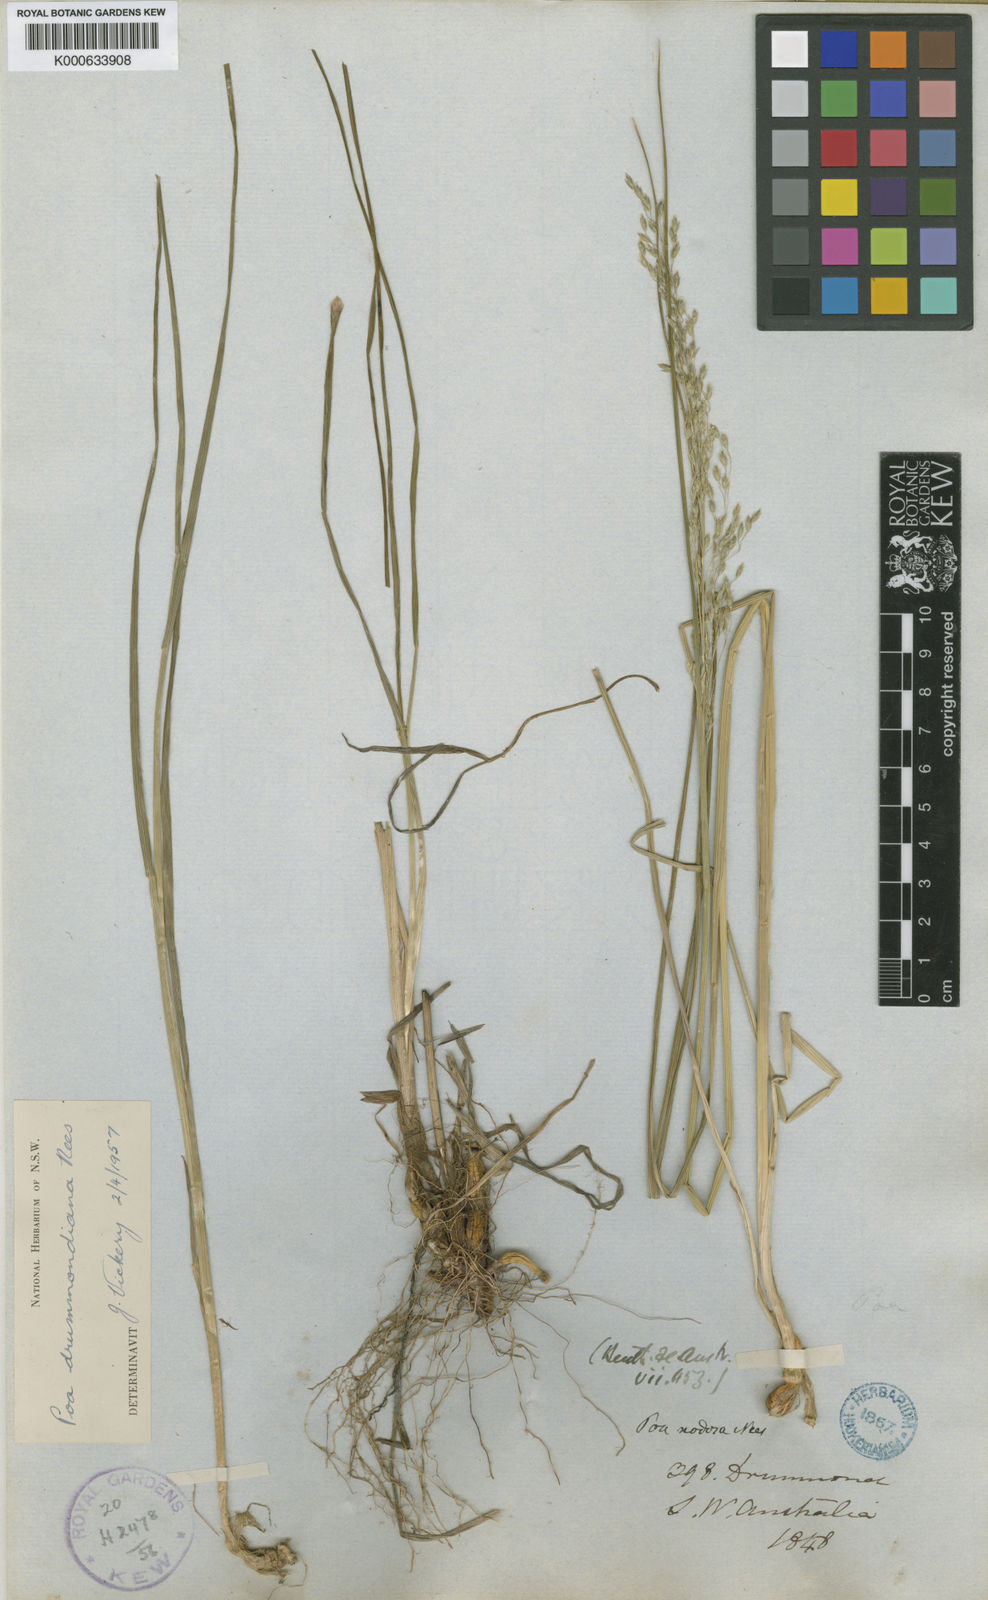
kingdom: Plantae
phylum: Tracheophyta
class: Liliopsida
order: Poales
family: Poaceae
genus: Poa
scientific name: Poa drummondiana
